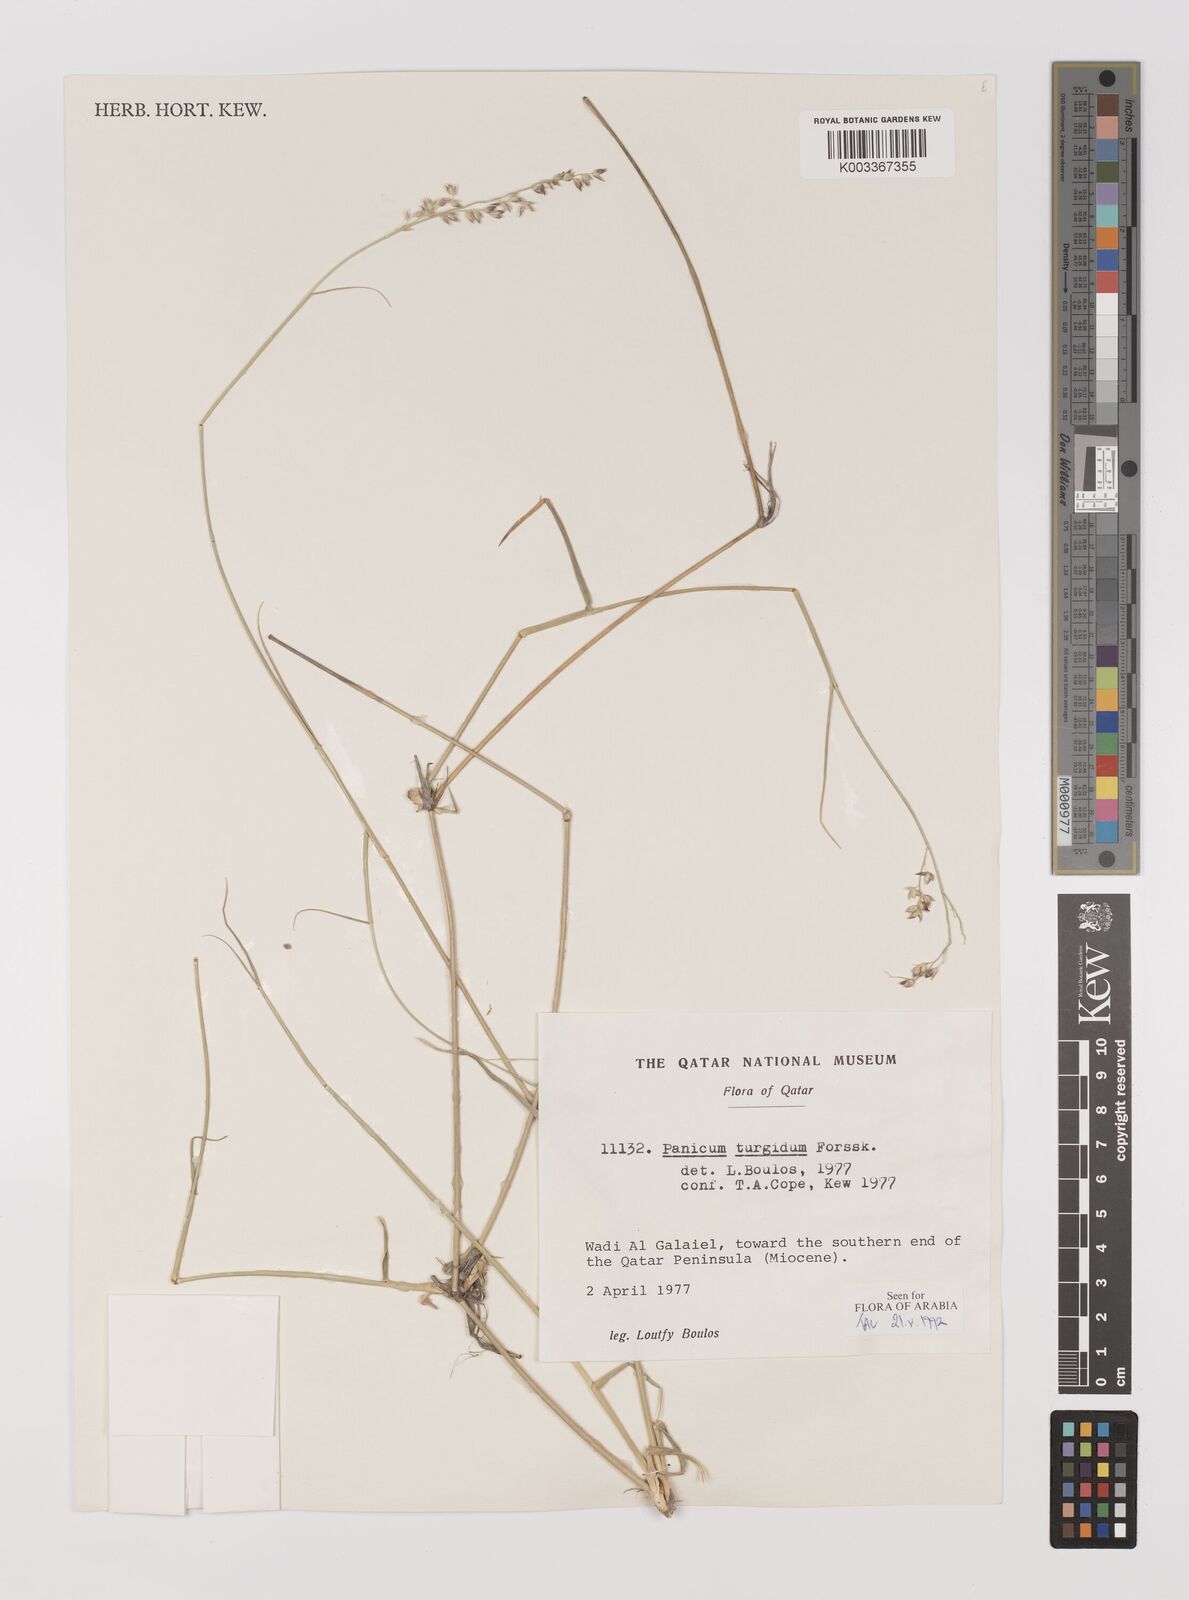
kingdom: Plantae
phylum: Tracheophyta
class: Liliopsida
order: Poales
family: Poaceae
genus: Panicum
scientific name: Panicum turgidum
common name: Desert grass
